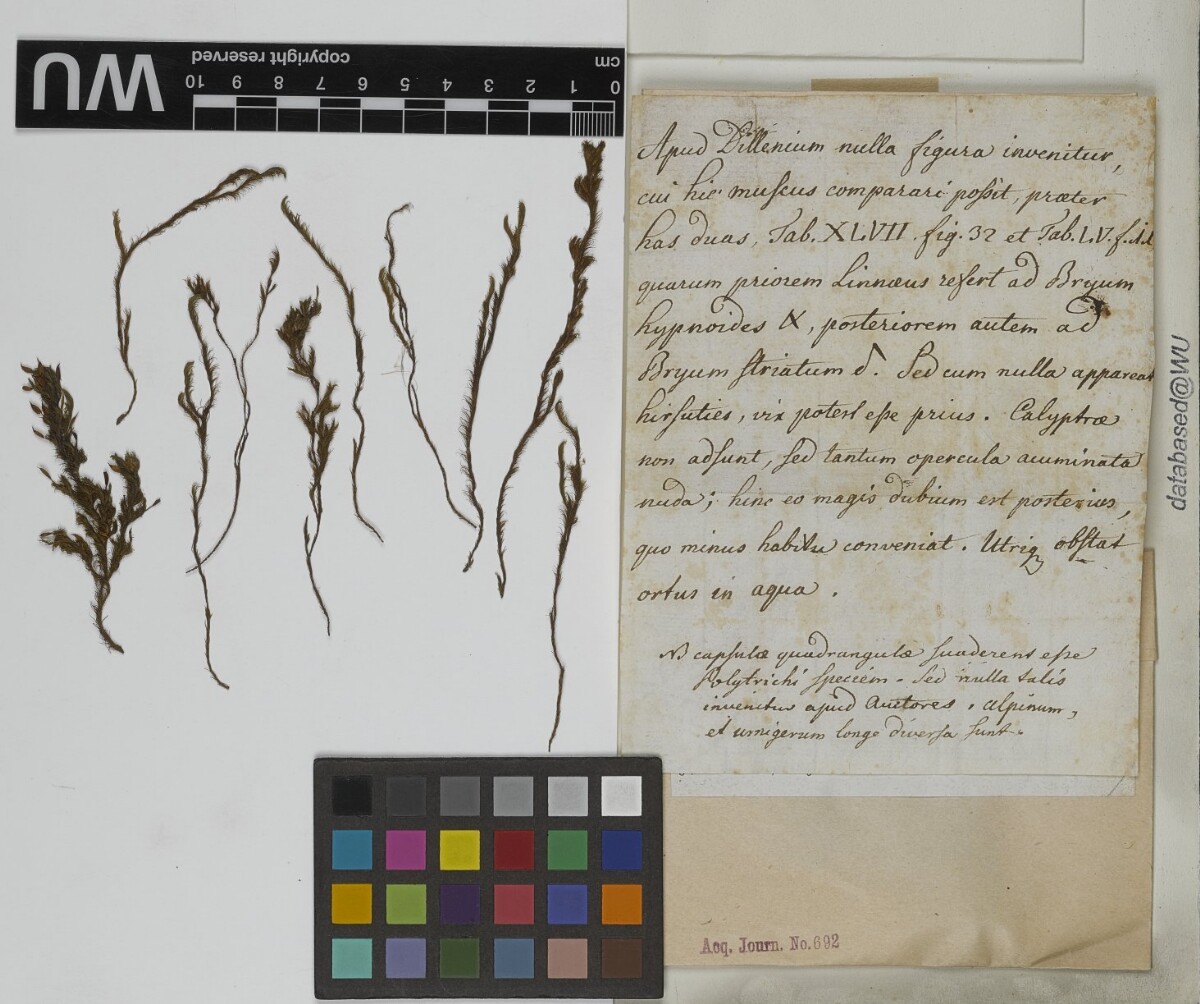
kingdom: Plantae
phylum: Bryophyta
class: Bryopsida
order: Pottiales
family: Pottiaceae
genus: Cinclidotus
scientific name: Cinclidotus aquaticus
